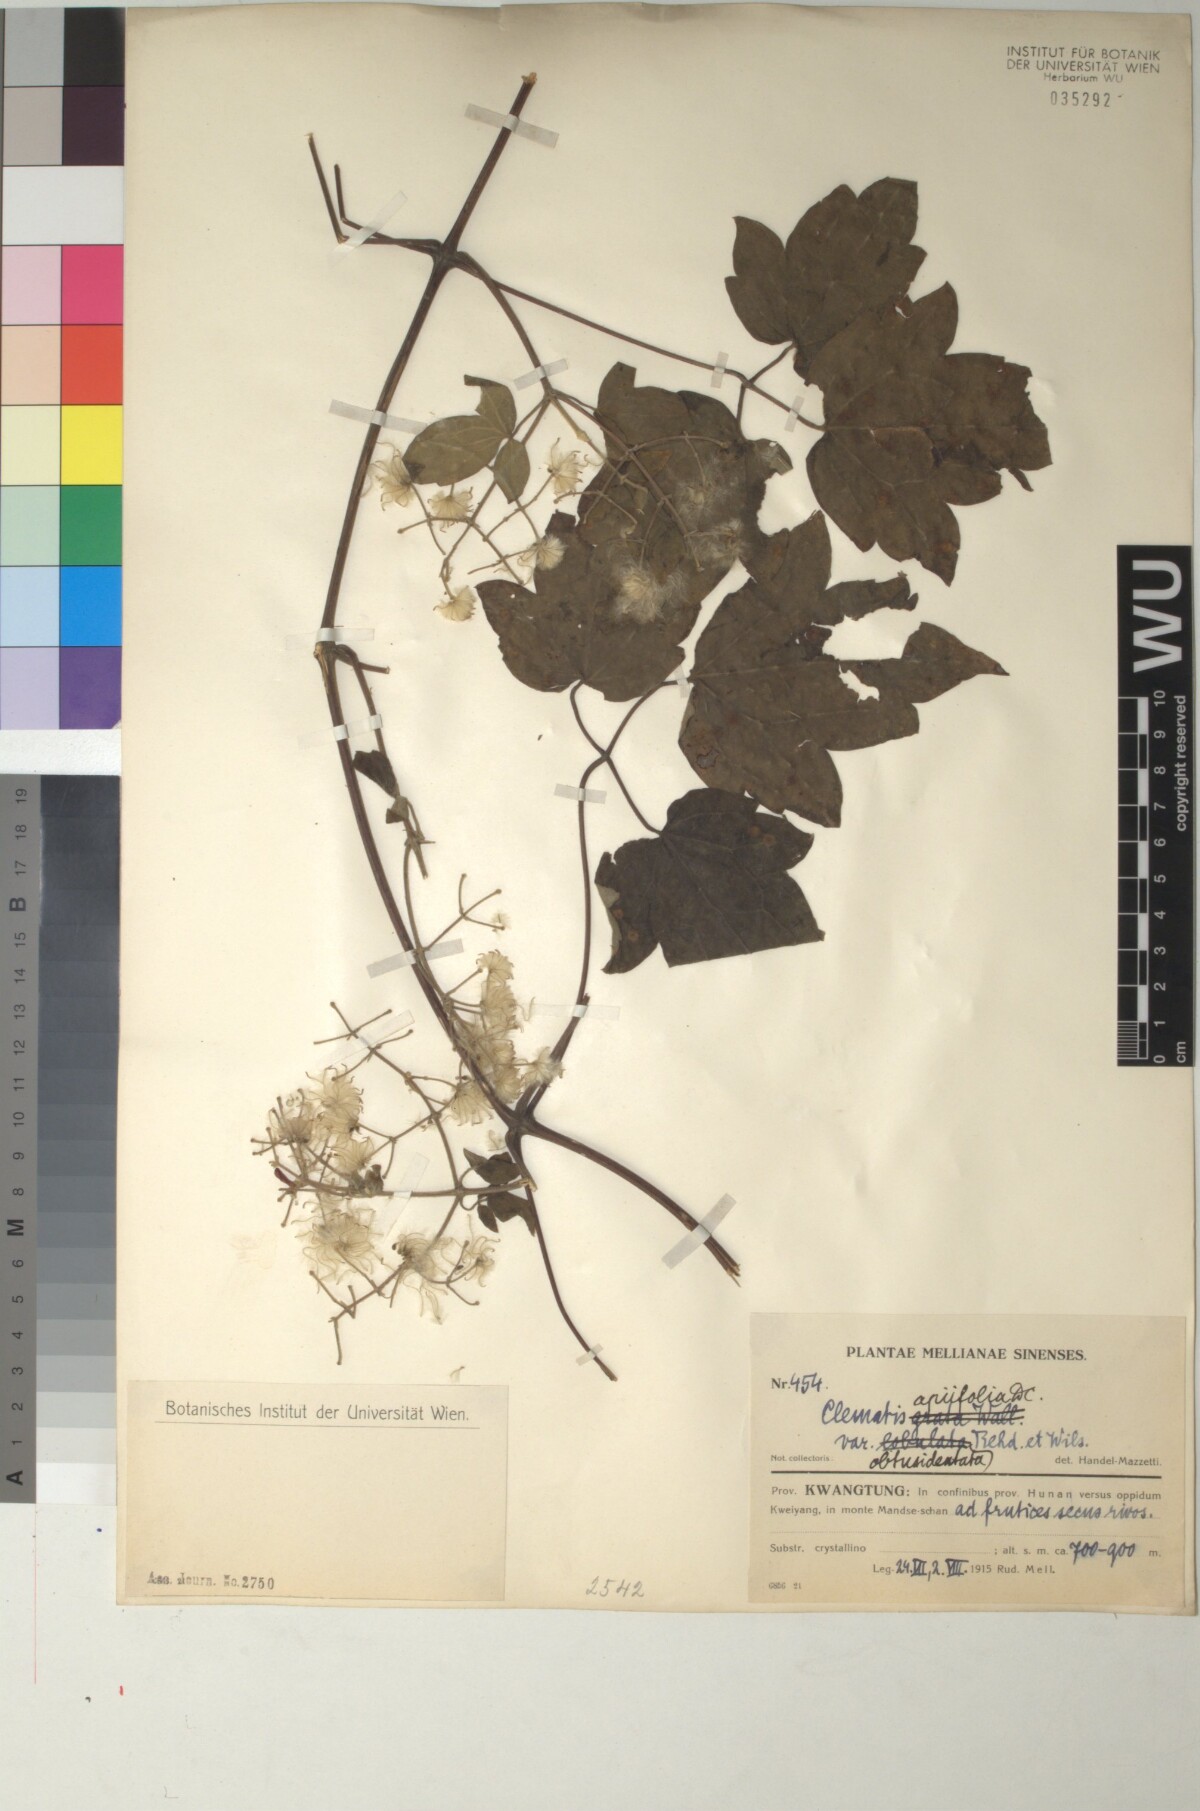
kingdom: Plantae
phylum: Tracheophyta
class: Magnoliopsida
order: Ranunculales
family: Ranunculaceae
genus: Clematis
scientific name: Clematis apiifolia
